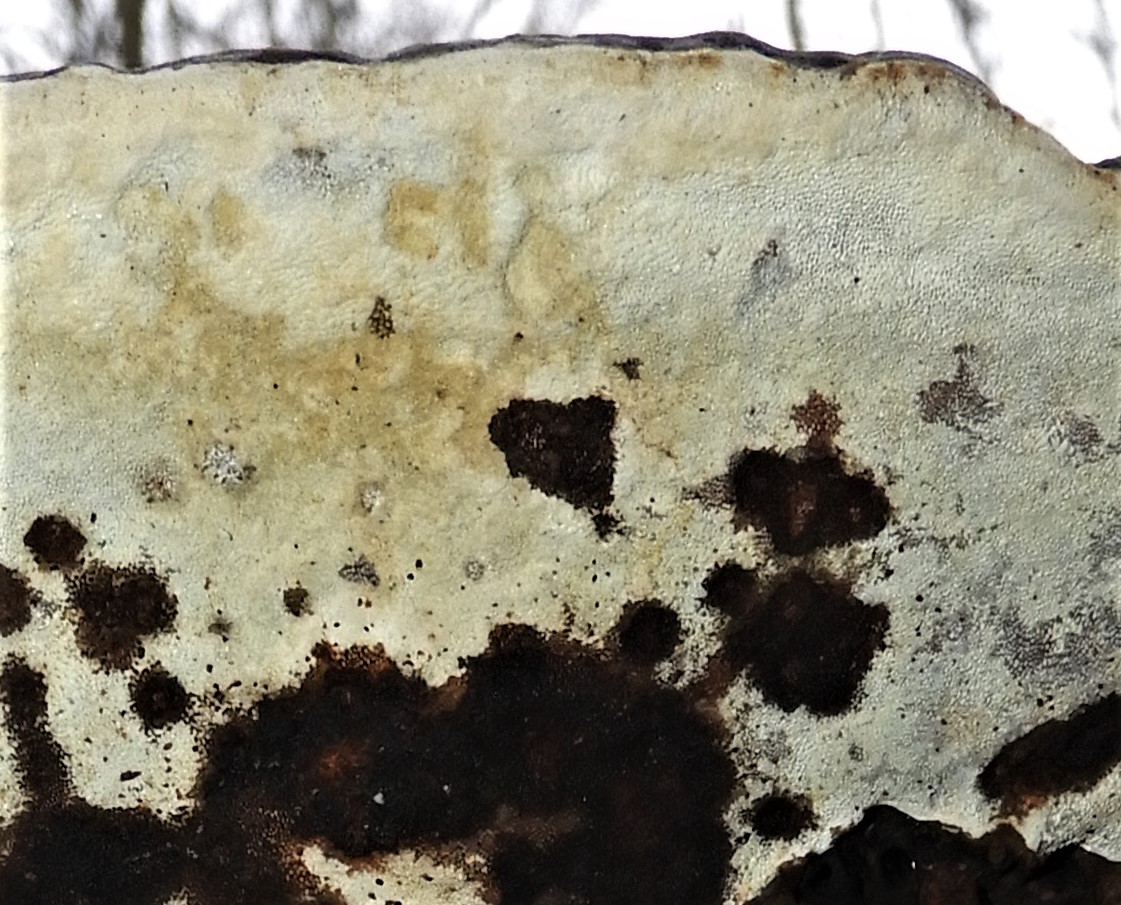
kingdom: Fungi
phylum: Basidiomycota
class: Agaricomycetes
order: Polyporales
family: Polyporaceae
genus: Ganoderma
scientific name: Ganoderma applanatum
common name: flad lakporesvamp
